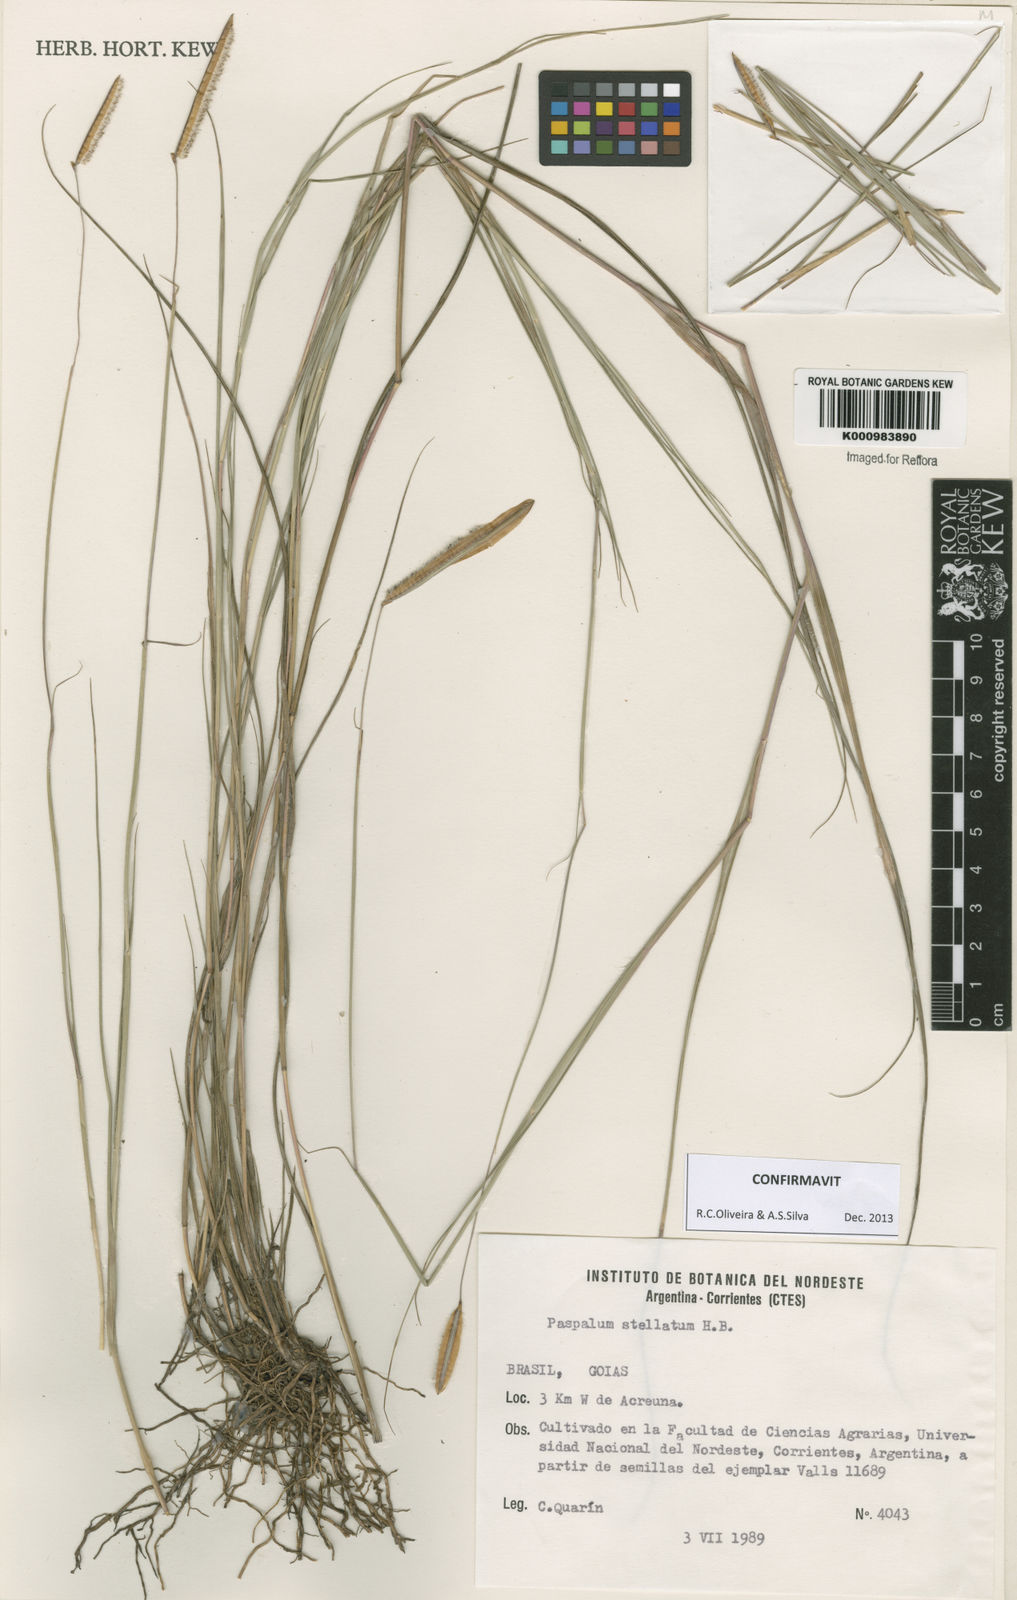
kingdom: Plantae
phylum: Tracheophyta
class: Liliopsida
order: Poales
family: Poaceae
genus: Paspalum
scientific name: Paspalum
